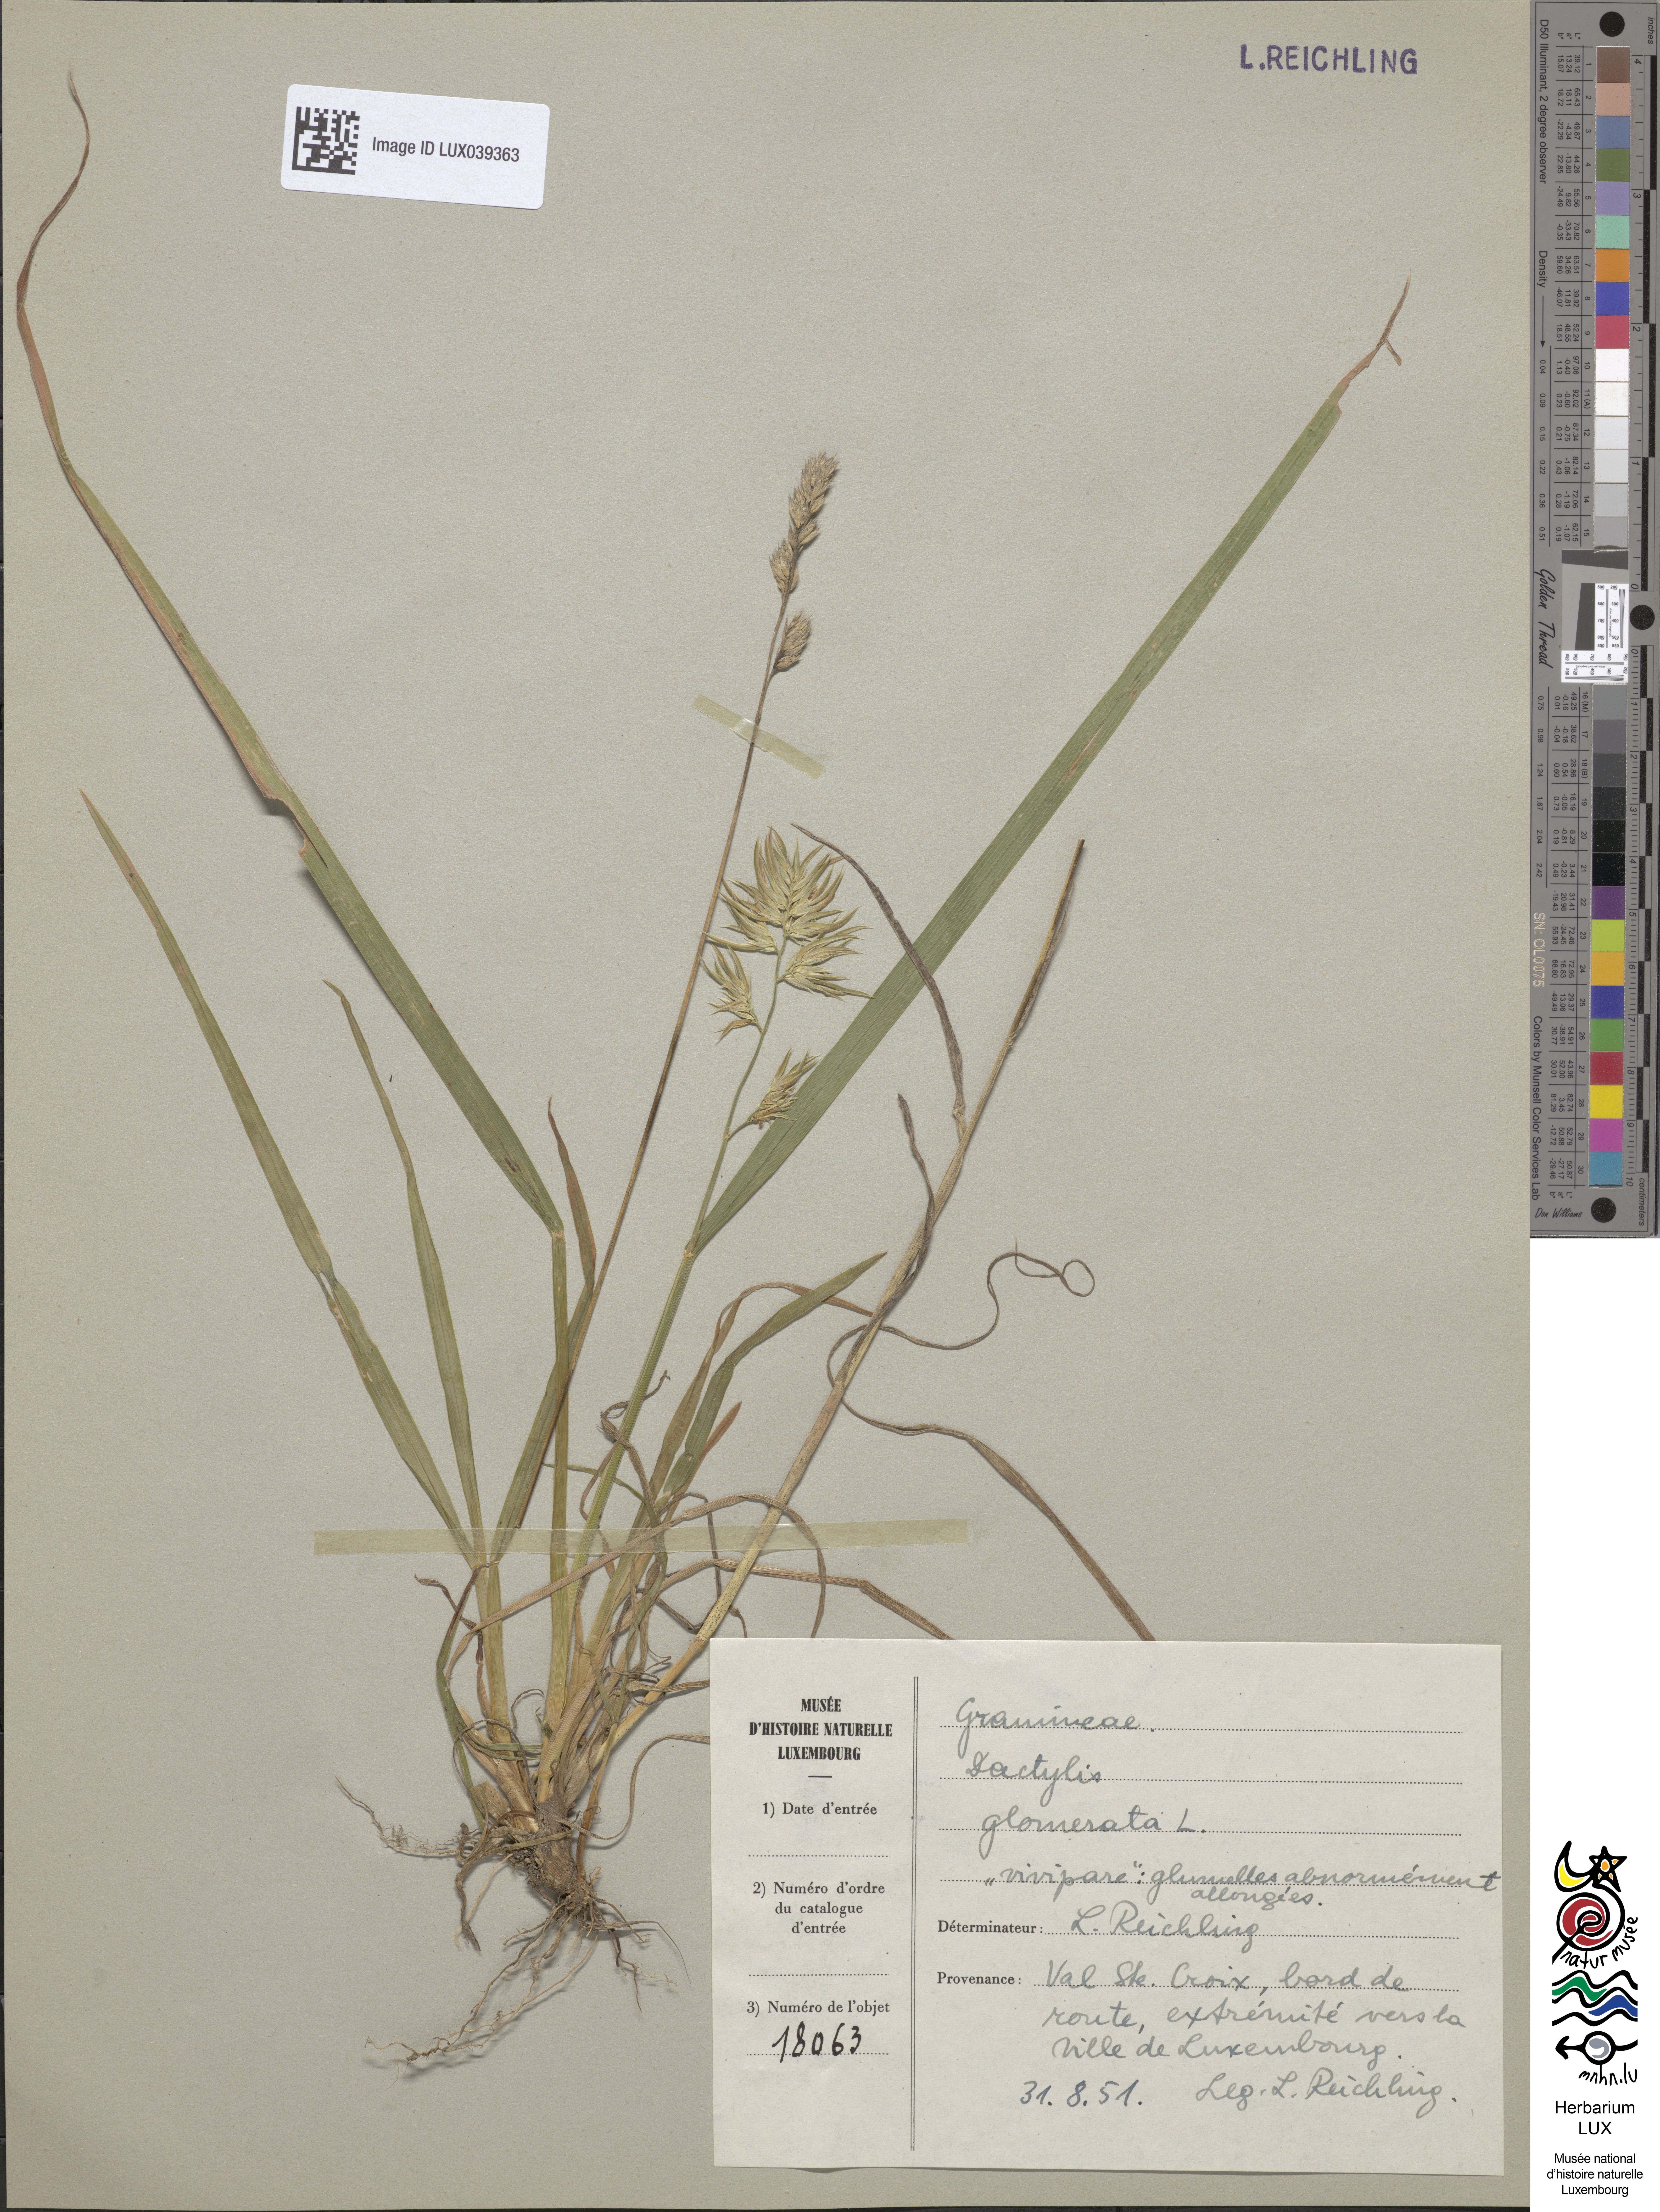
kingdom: Plantae
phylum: Tracheophyta
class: Liliopsida
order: Poales
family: Poaceae
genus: Dactylis
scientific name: Dactylis glomerata
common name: Orchardgrass
